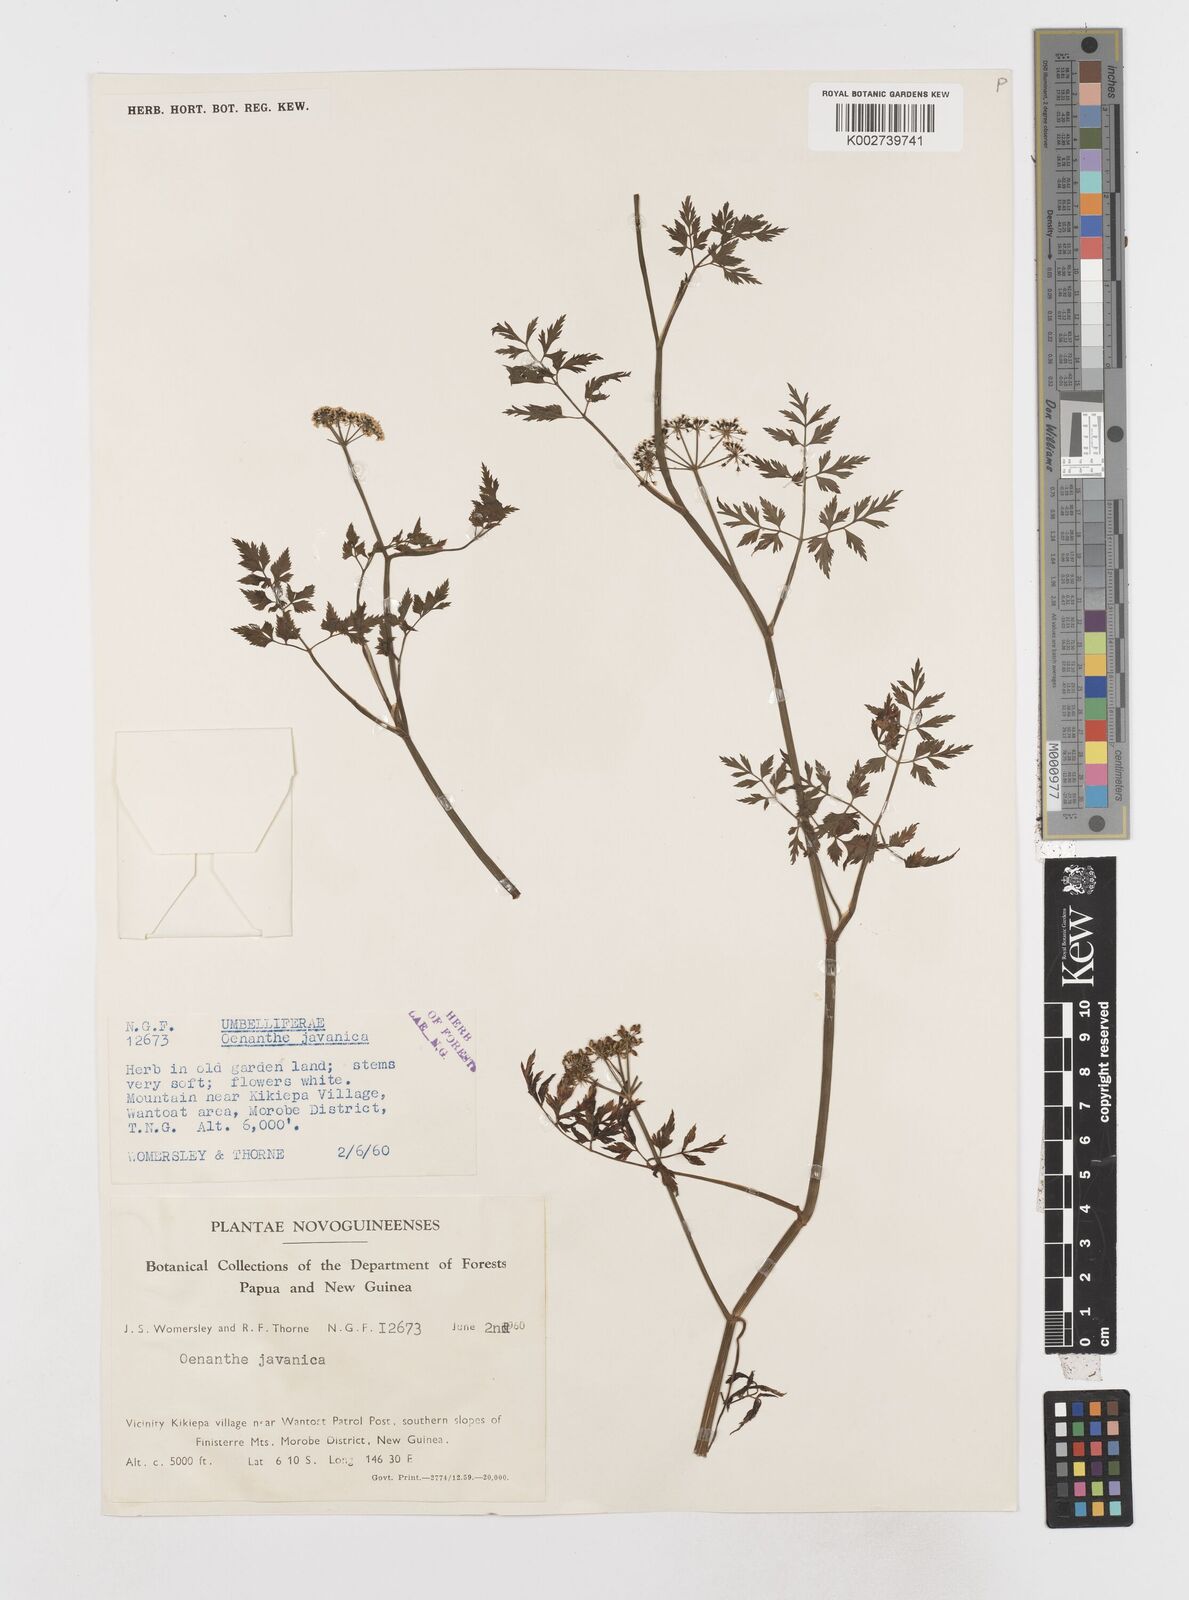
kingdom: Plantae
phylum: Tracheophyta
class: Magnoliopsida
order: Apiales
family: Apiaceae
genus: Oenanthe
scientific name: Oenanthe javanica
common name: Java water-dropwort
